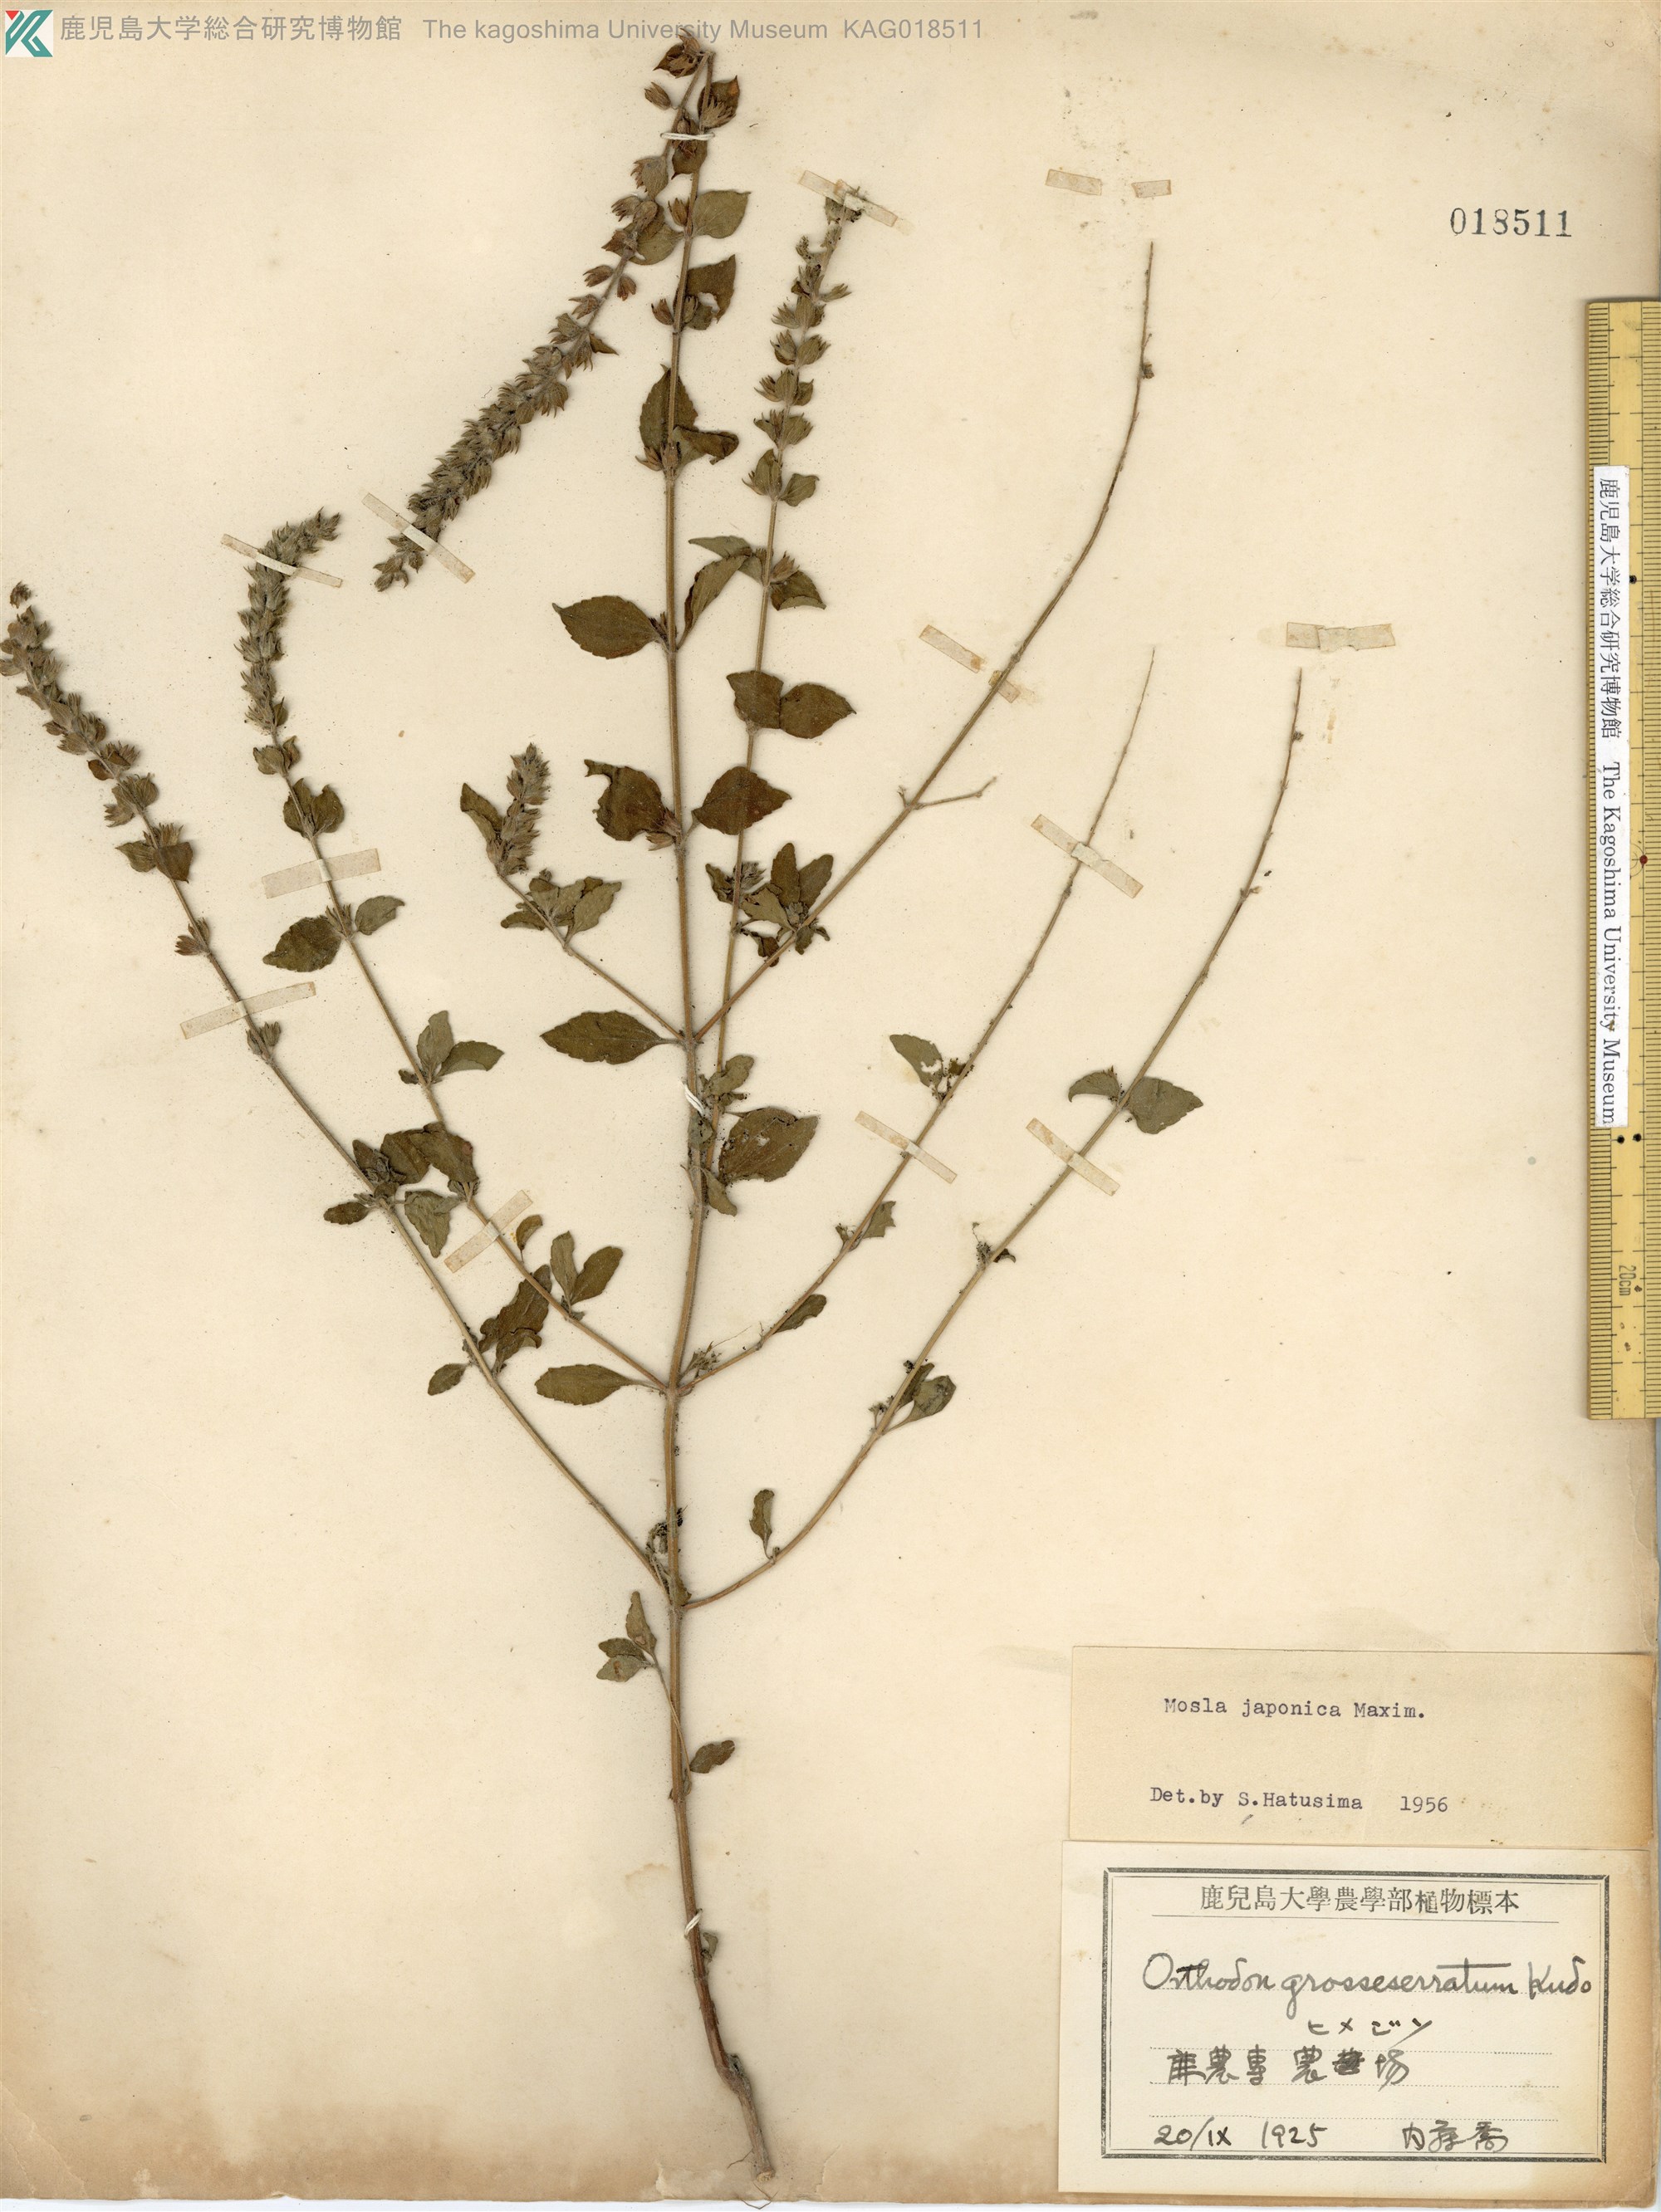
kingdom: Plantae
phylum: Tracheophyta
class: Magnoliopsida
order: Lamiales
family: Lamiaceae
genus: Mosla
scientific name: Mosla japonica
